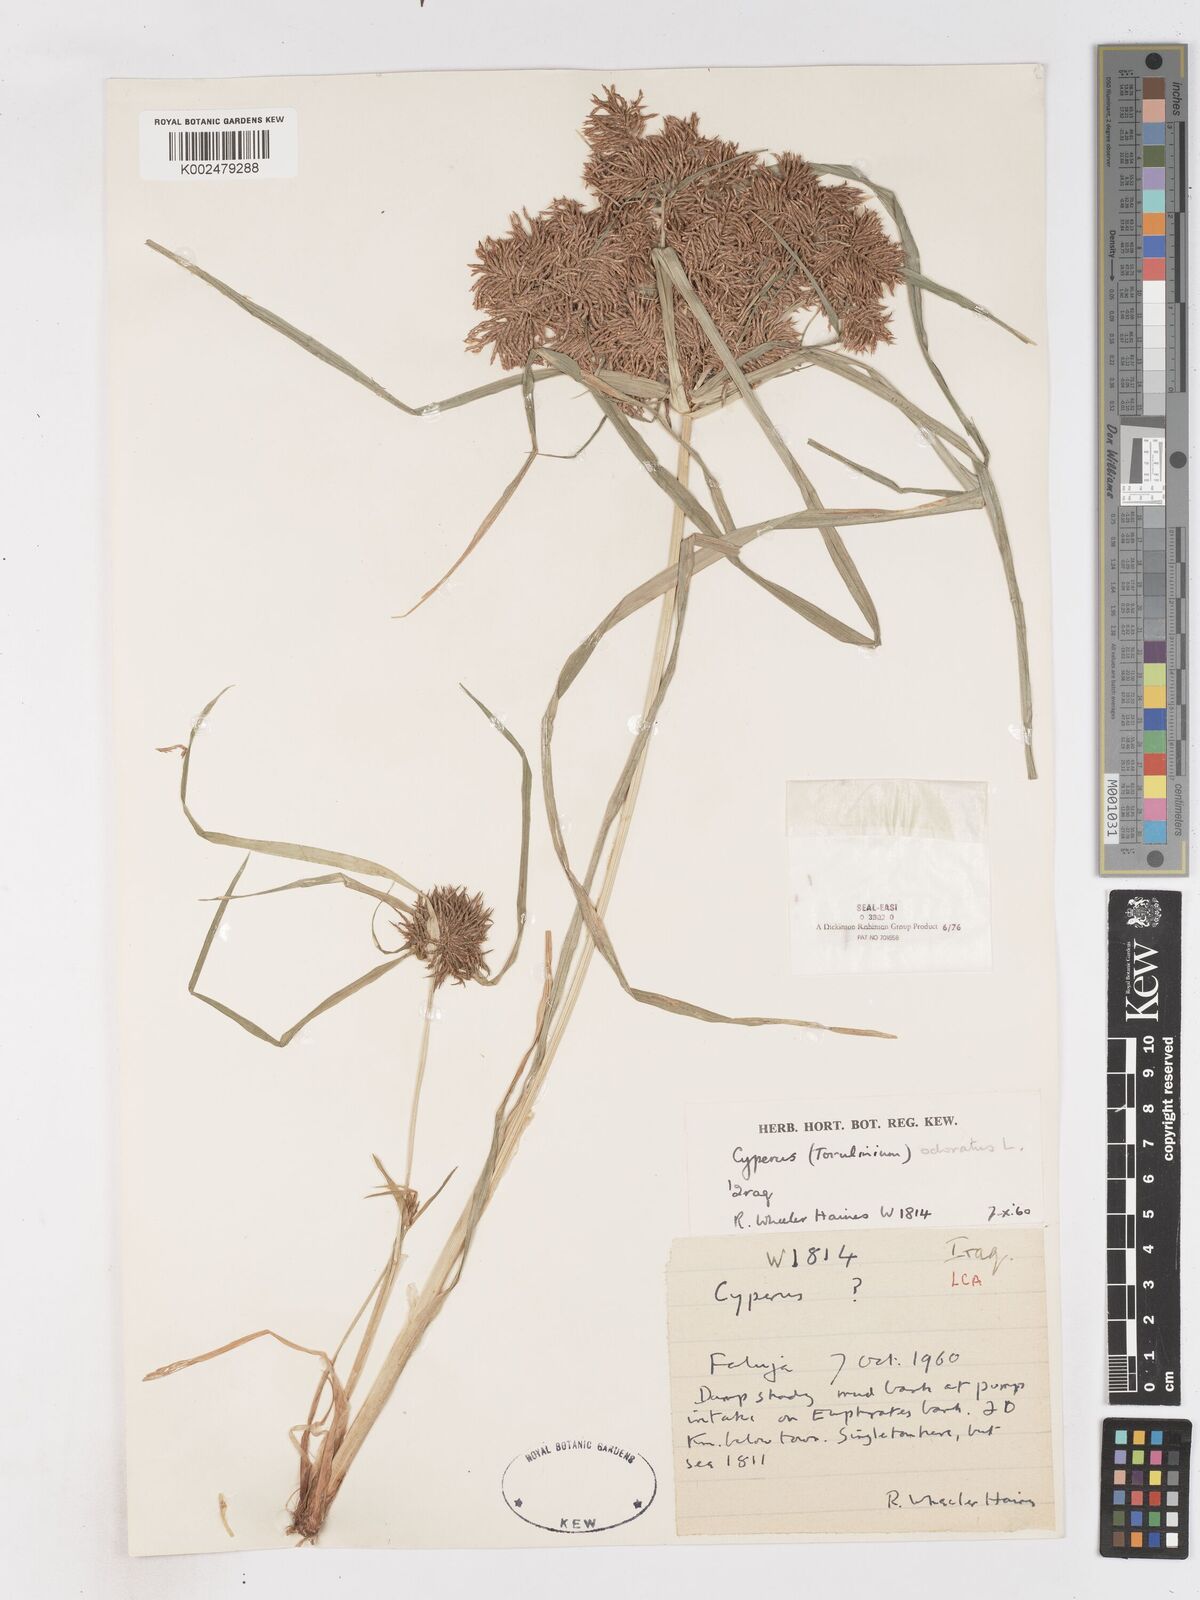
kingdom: Plantae
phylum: Tracheophyta
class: Liliopsida
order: Poales
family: Cyperaceae
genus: Cyperus
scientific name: Cyperus odoratus
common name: Fragrant flatsedge
